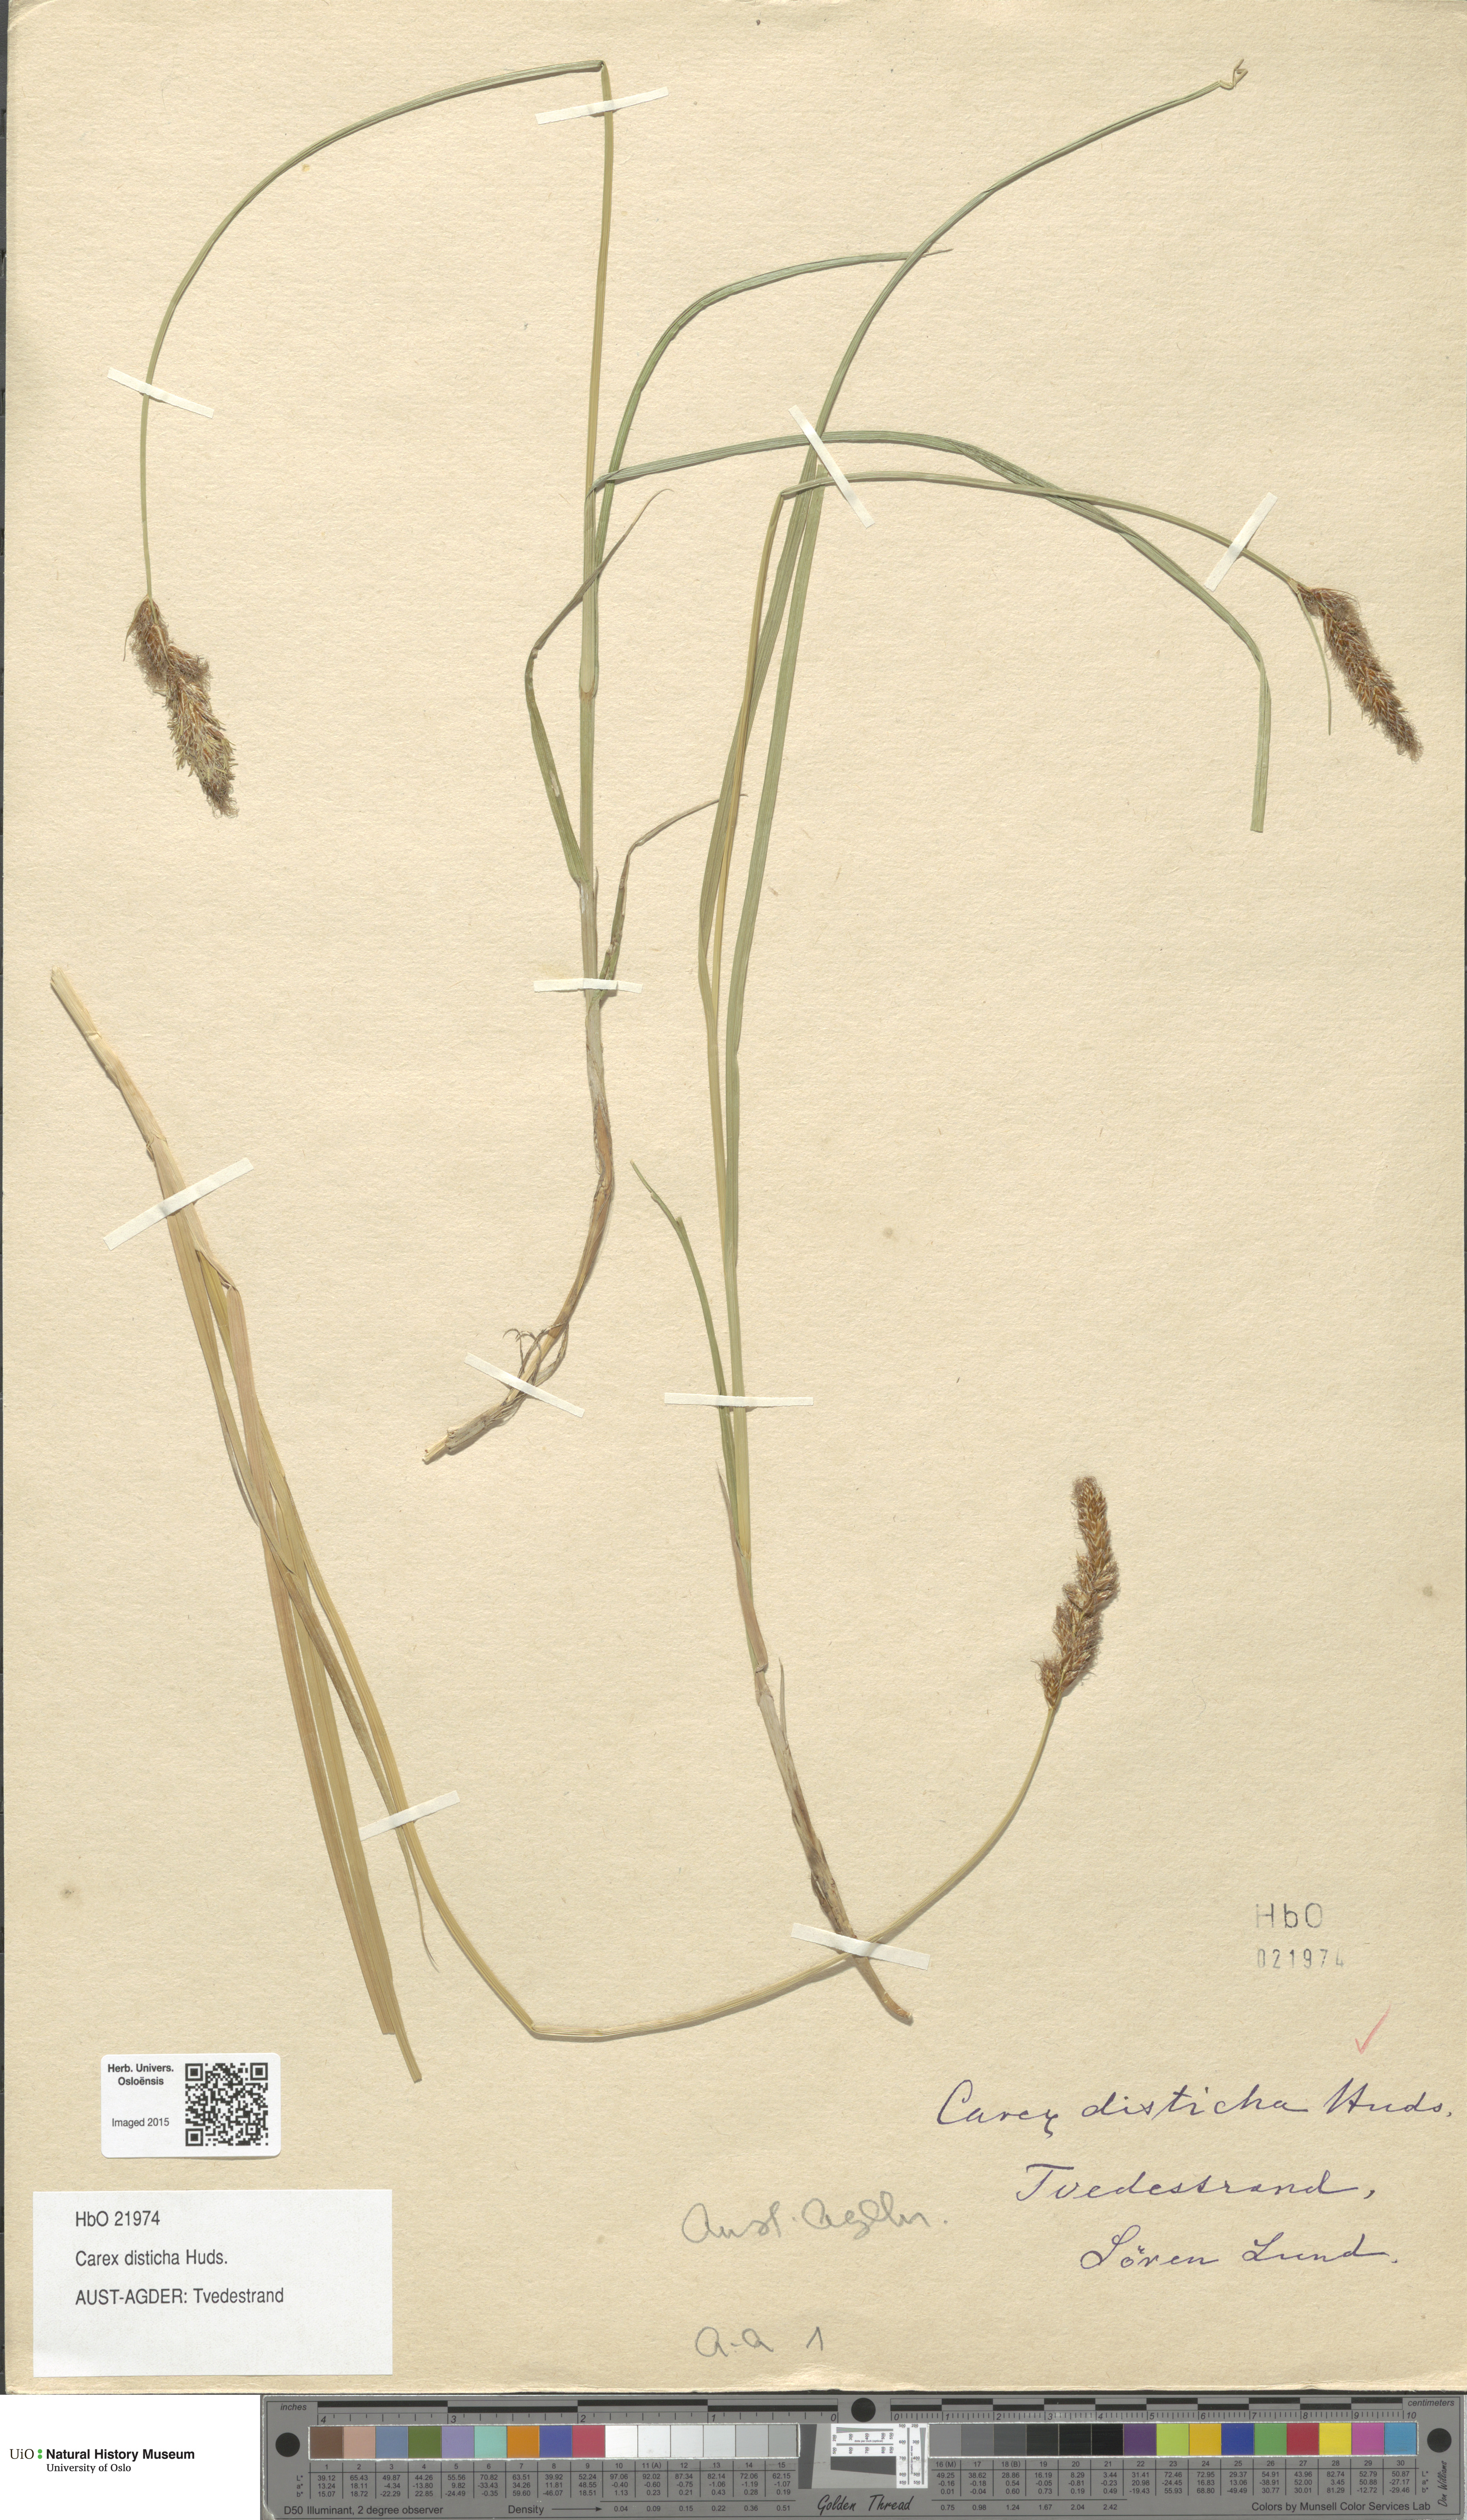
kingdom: Plantae
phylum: Tracheophyta
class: Liliopsida
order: Poales
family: Cyperaceae
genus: Carex
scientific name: Carex disticha
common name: Brown sedge
